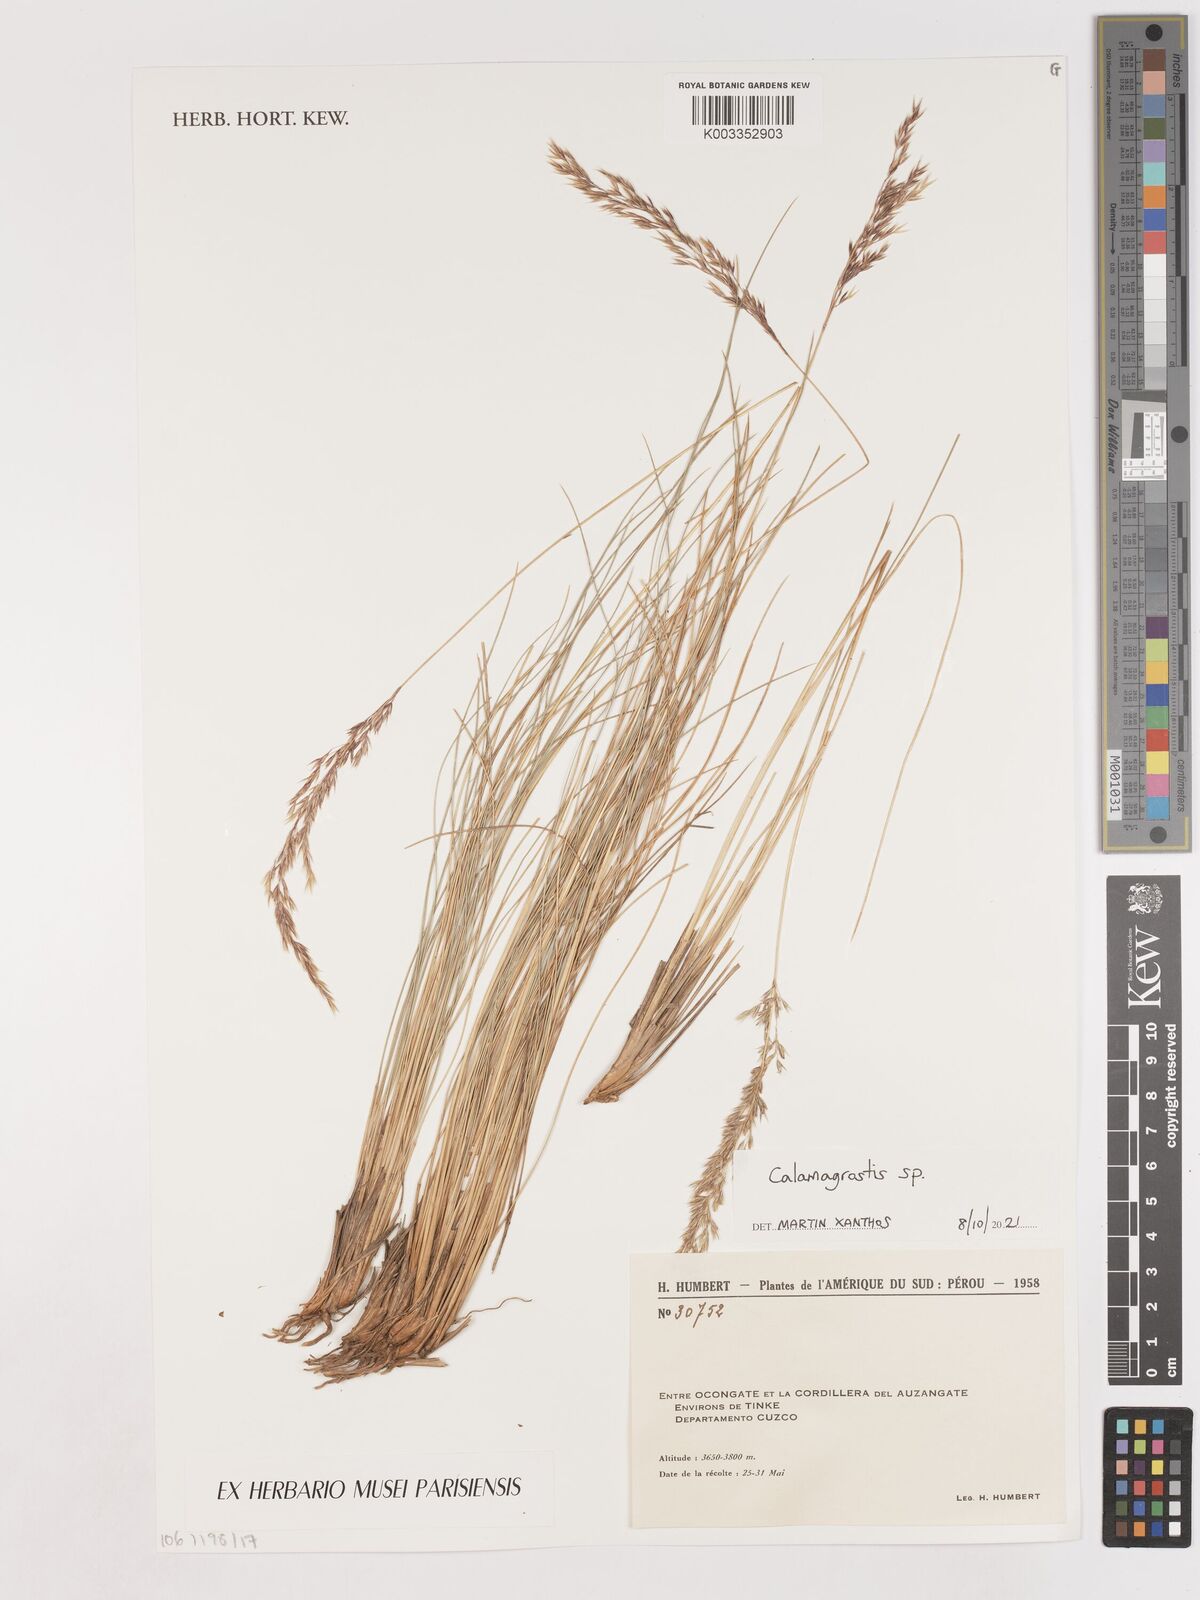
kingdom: Plantae
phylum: Tracheophyta
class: Liliopsida
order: Poales
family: Poaceae
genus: Calamagrostis
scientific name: Calamagrostis
